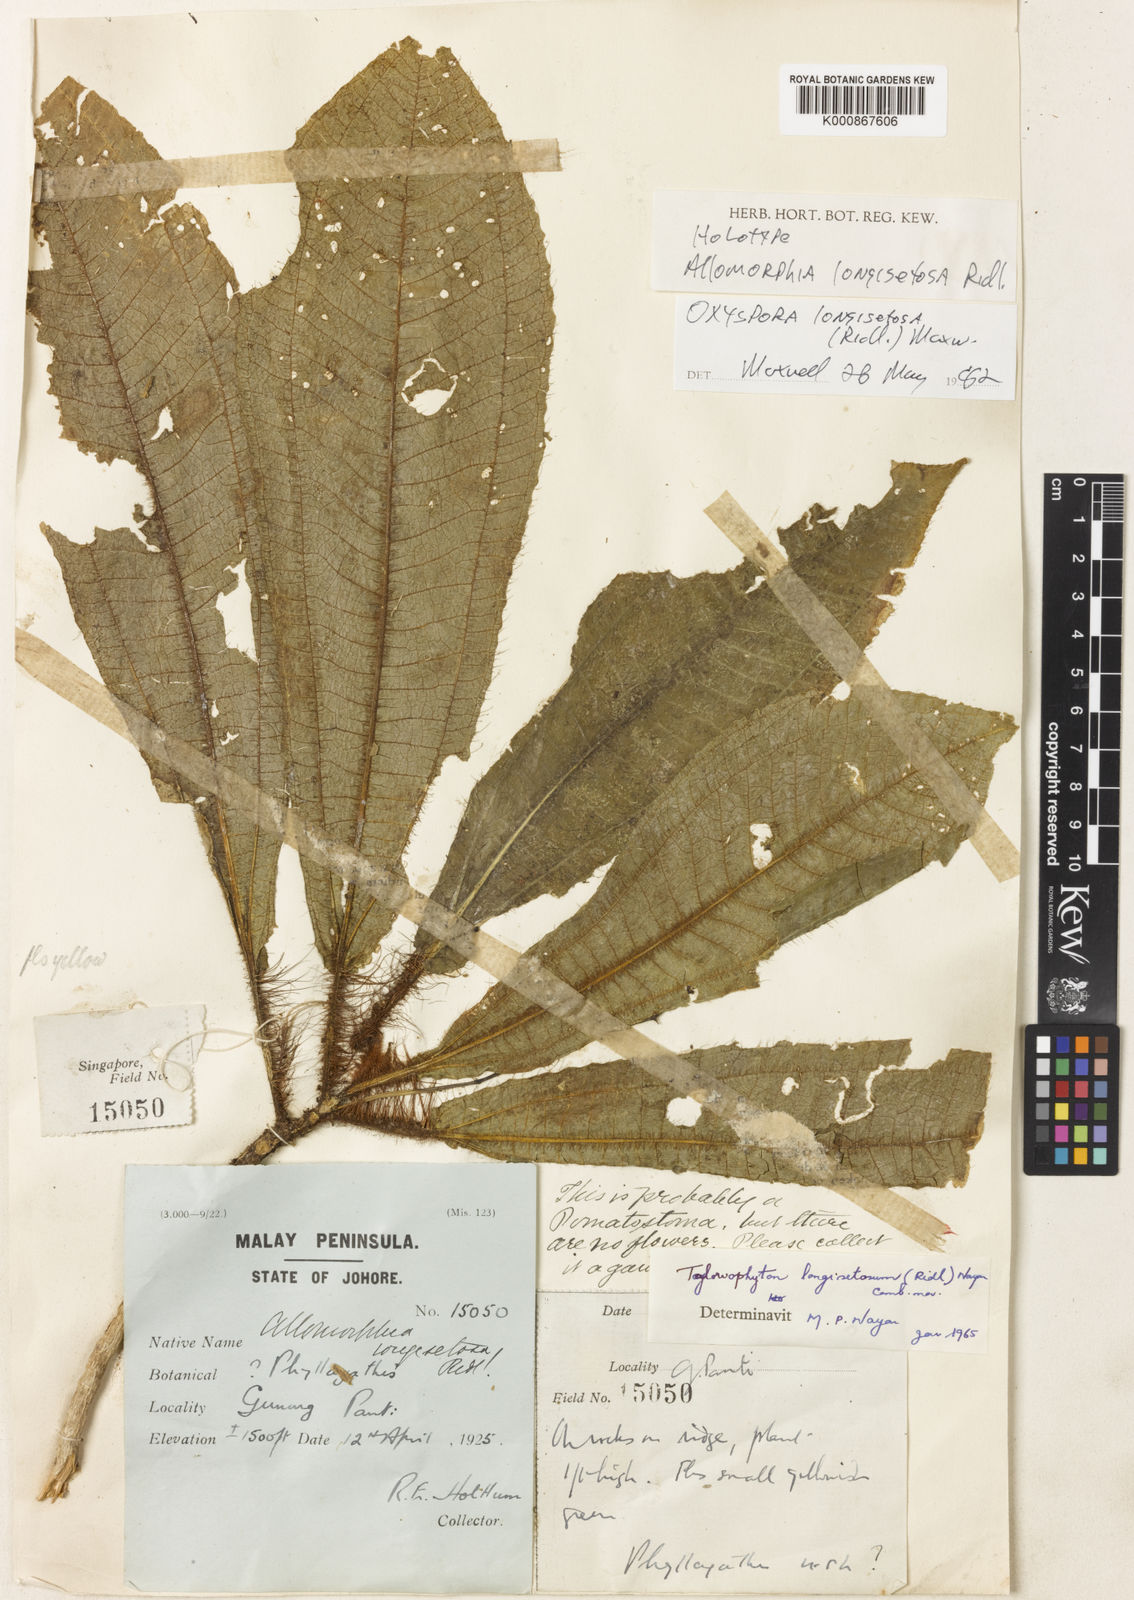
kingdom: Plantae
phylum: Tracheophyta
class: Magnoliopsida
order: Myrtales
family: Melastomataceae
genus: Tayloriophyton
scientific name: Tayloriophyton longisetosum
